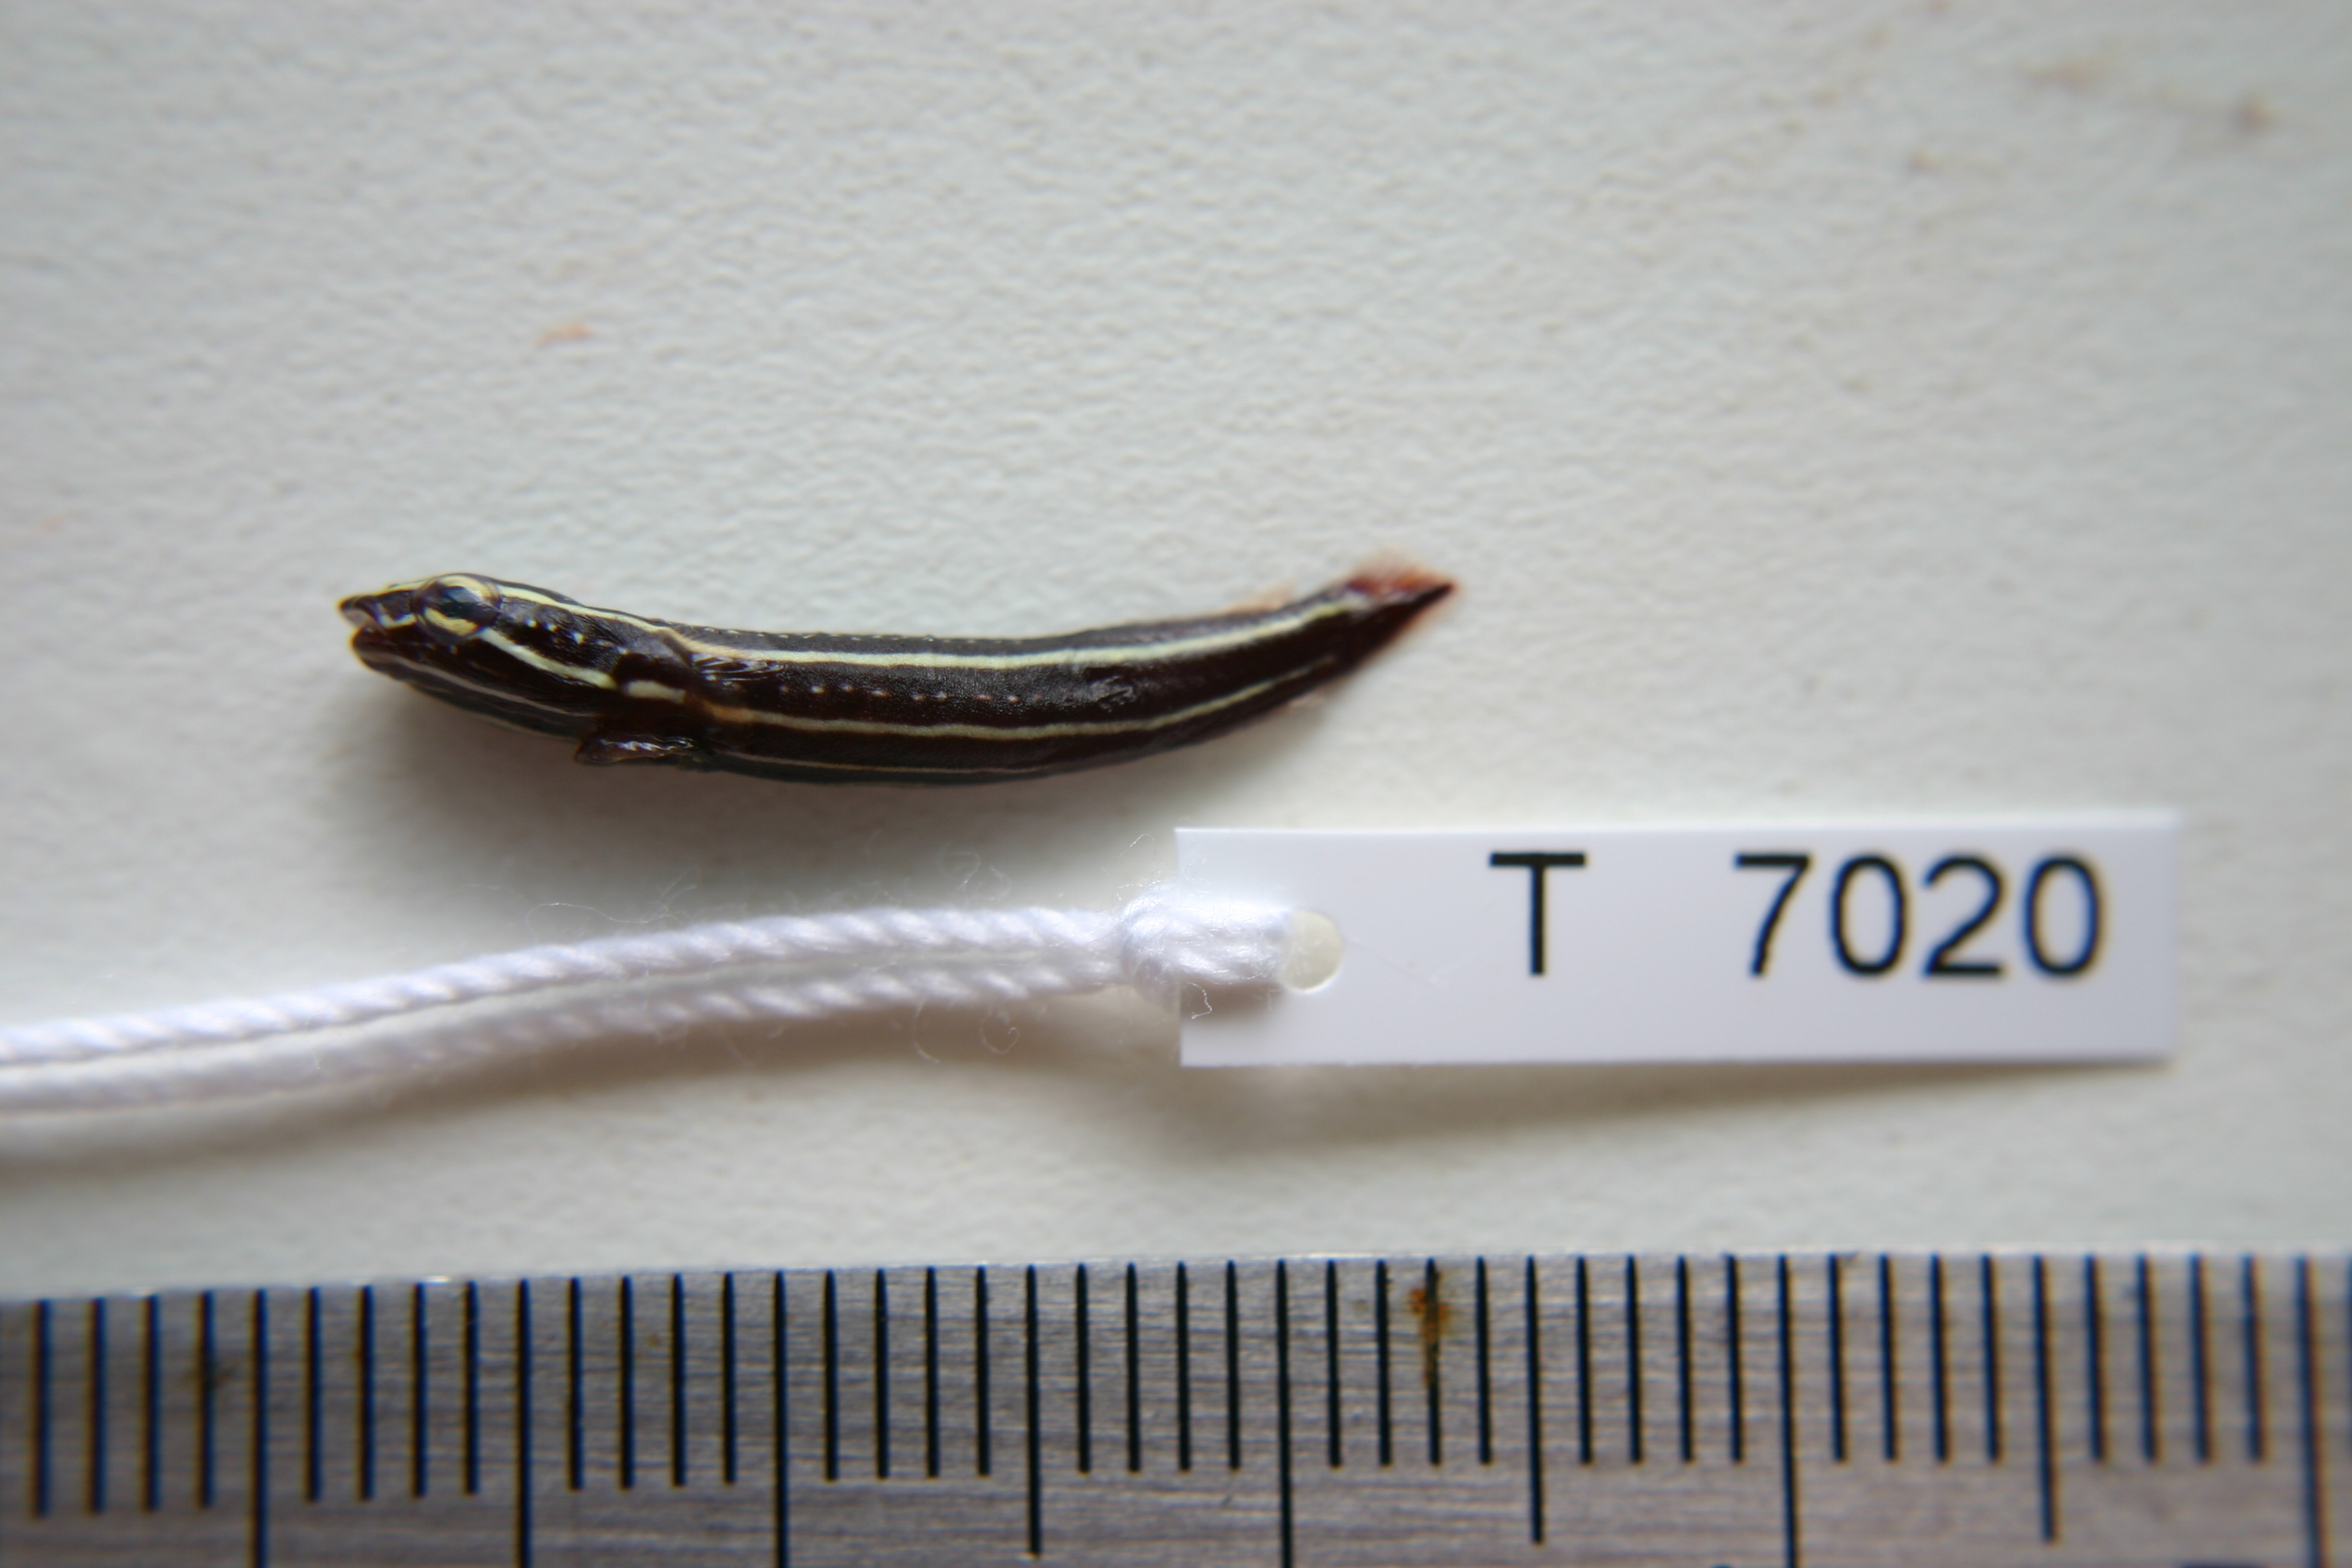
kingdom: Animalia
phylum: Chordata
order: Gobiesociformes
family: Gobiesocidae
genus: Lepadichthys
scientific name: Lepadichthys lineatus
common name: Doubleline clingfish
